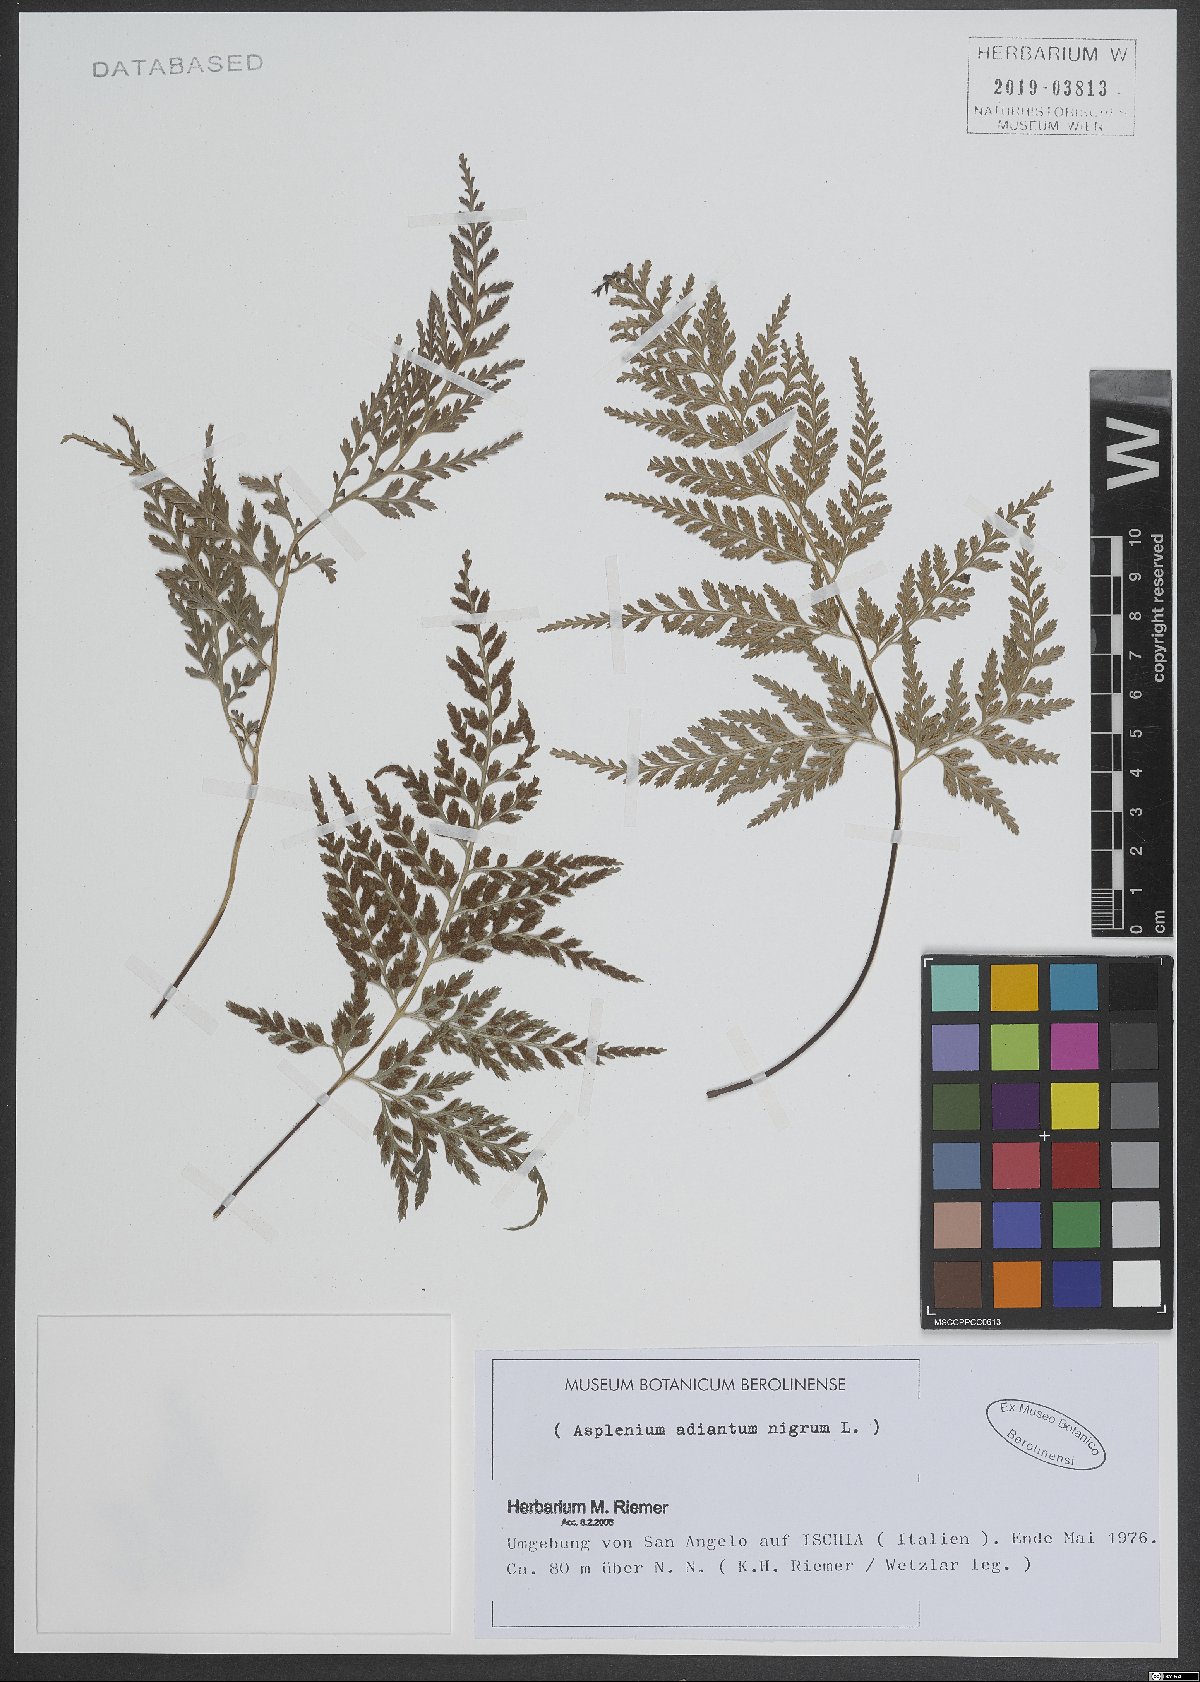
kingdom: Plantae
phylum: Tracheophyta
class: Polypodiopsida
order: Polypodiales
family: Aspleniaceae
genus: Asplenium
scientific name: Asplenium adiantum-nigrum
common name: Black spleenwort
